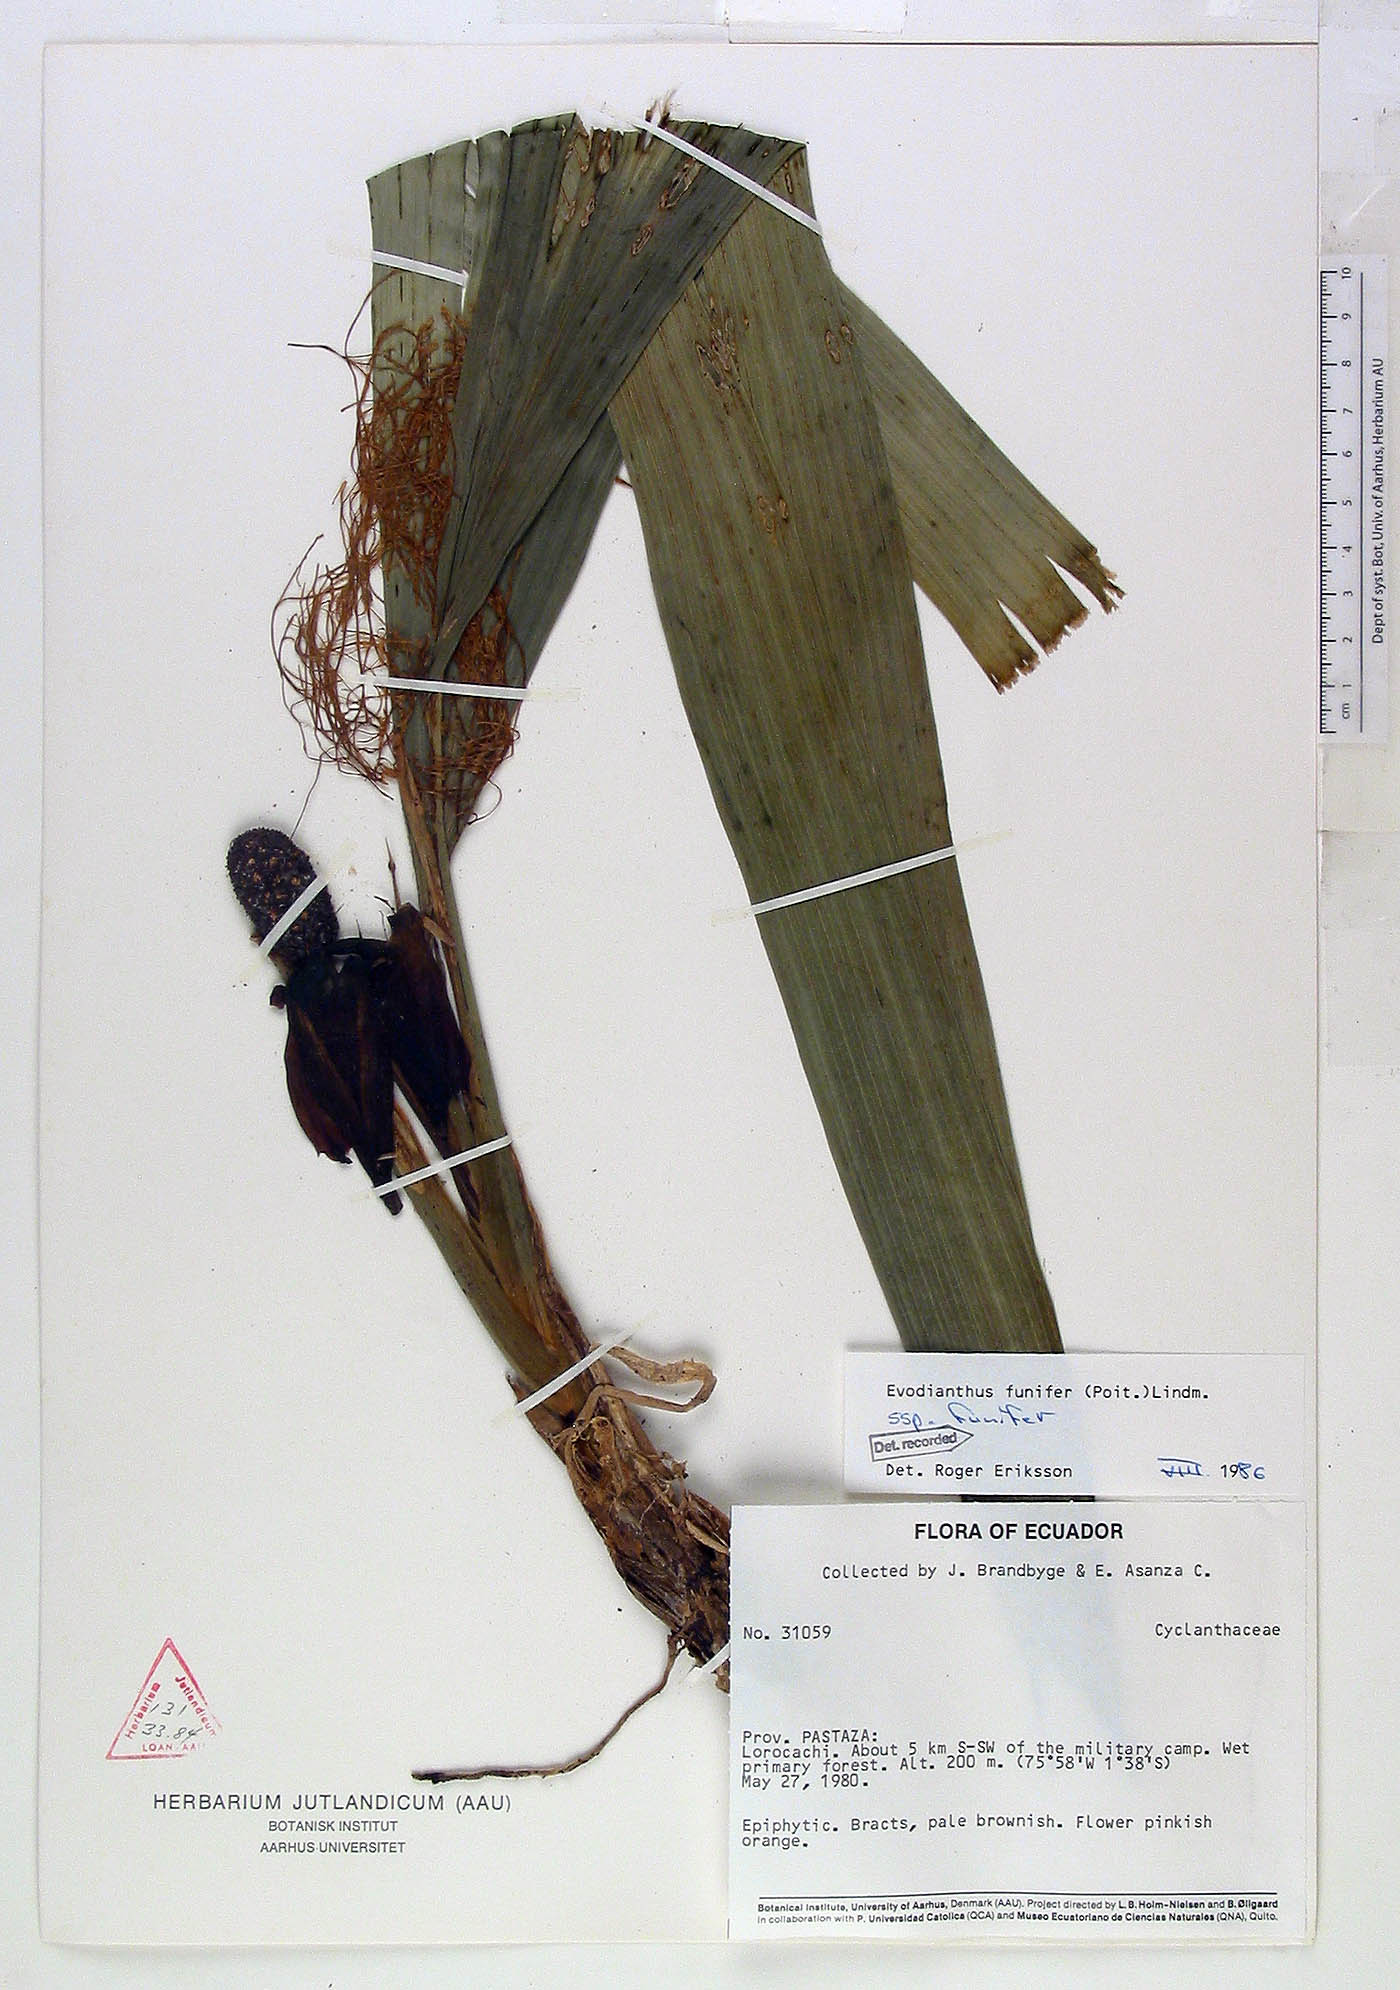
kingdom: Plantae
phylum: Tracheophyta
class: Liliopsida
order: Pandanales
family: Cyclanthaceae
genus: Evodianthus
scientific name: Evodianthus funifer
